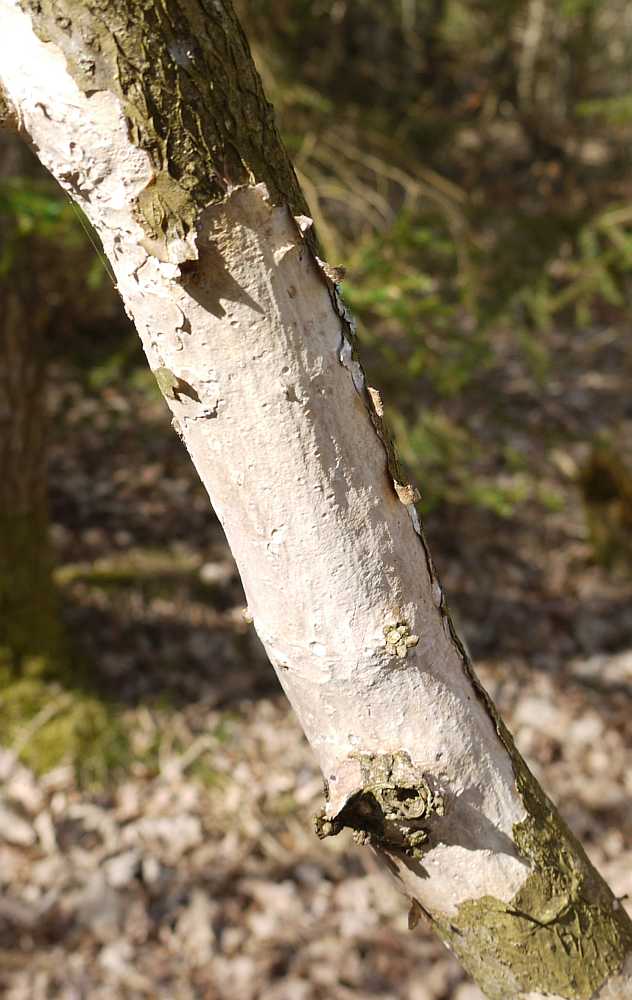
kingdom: Fungi
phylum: Basidiomycota
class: Agaricomycetes
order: Corticiales
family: Vuilleminiaceae
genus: Vuilleminia
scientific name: Vuilleminia comedens
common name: almindelig barksprænger
